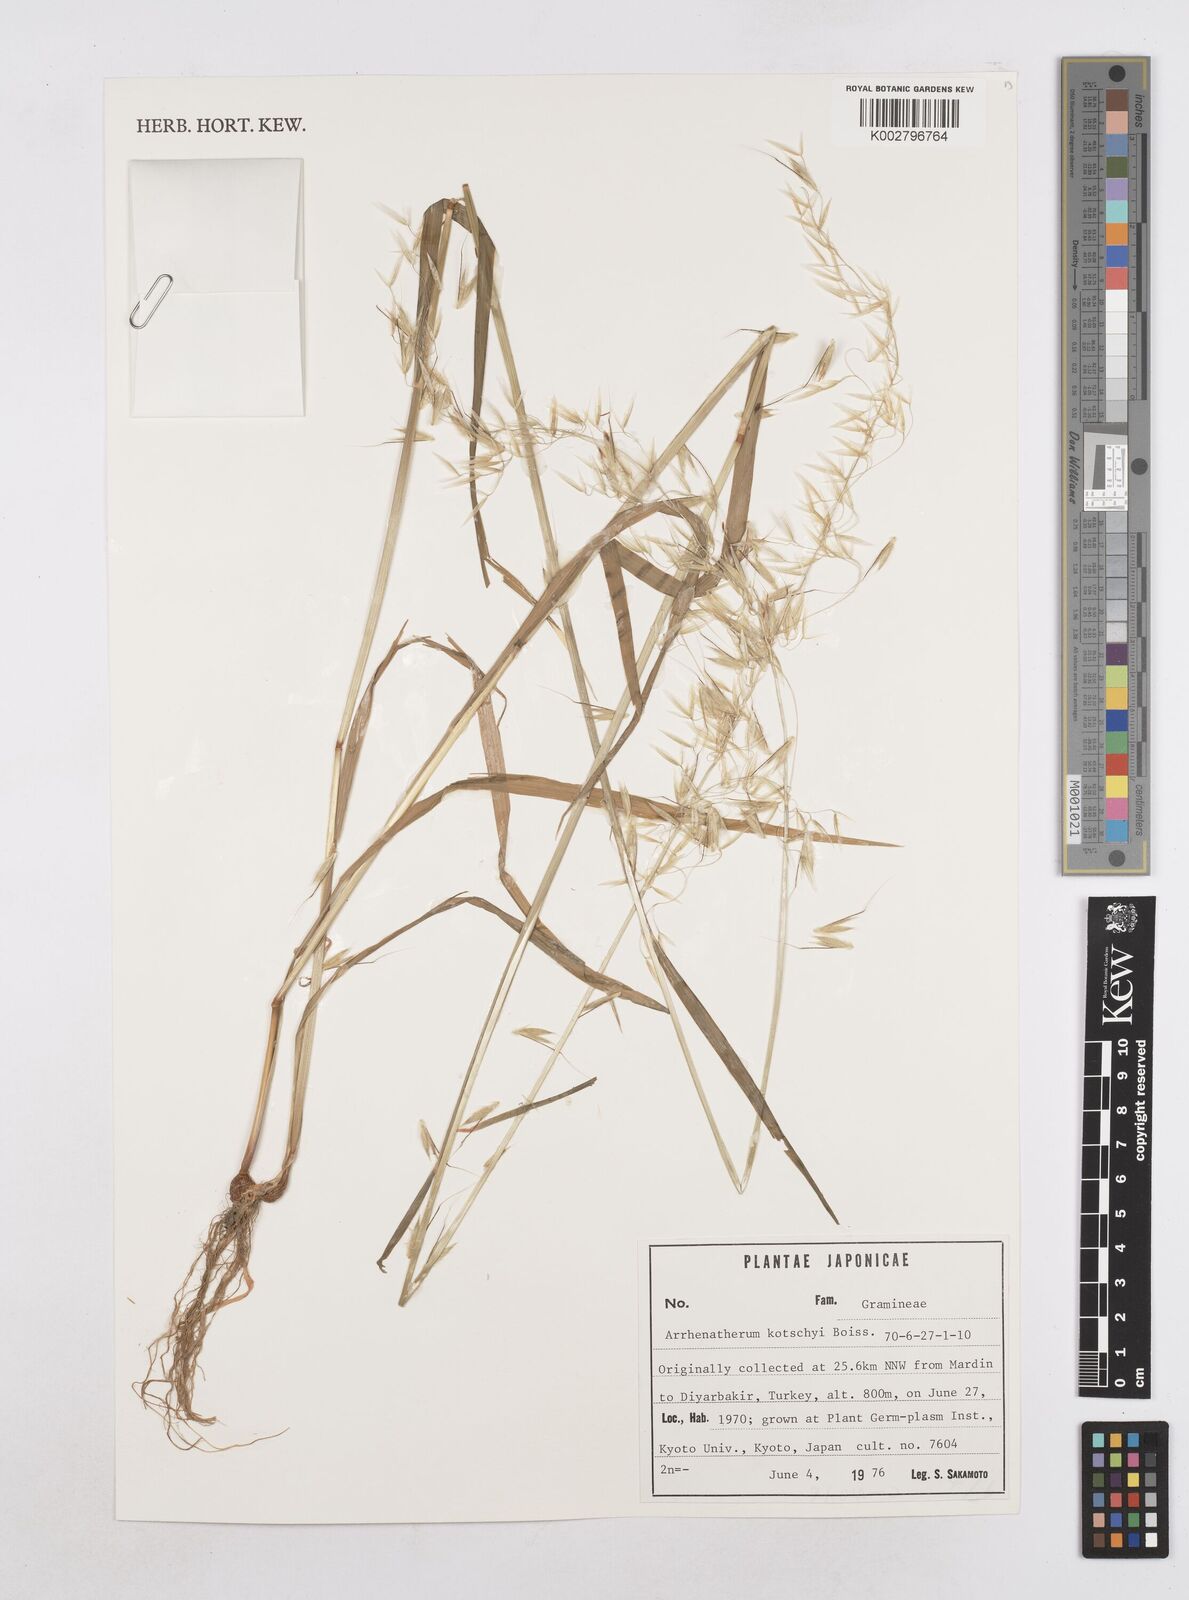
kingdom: Plantae
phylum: Tracheophyta
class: Liliopsida
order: Poales
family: Poaceae
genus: Arrhenatherum
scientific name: Arrhenatherum kotschyi
